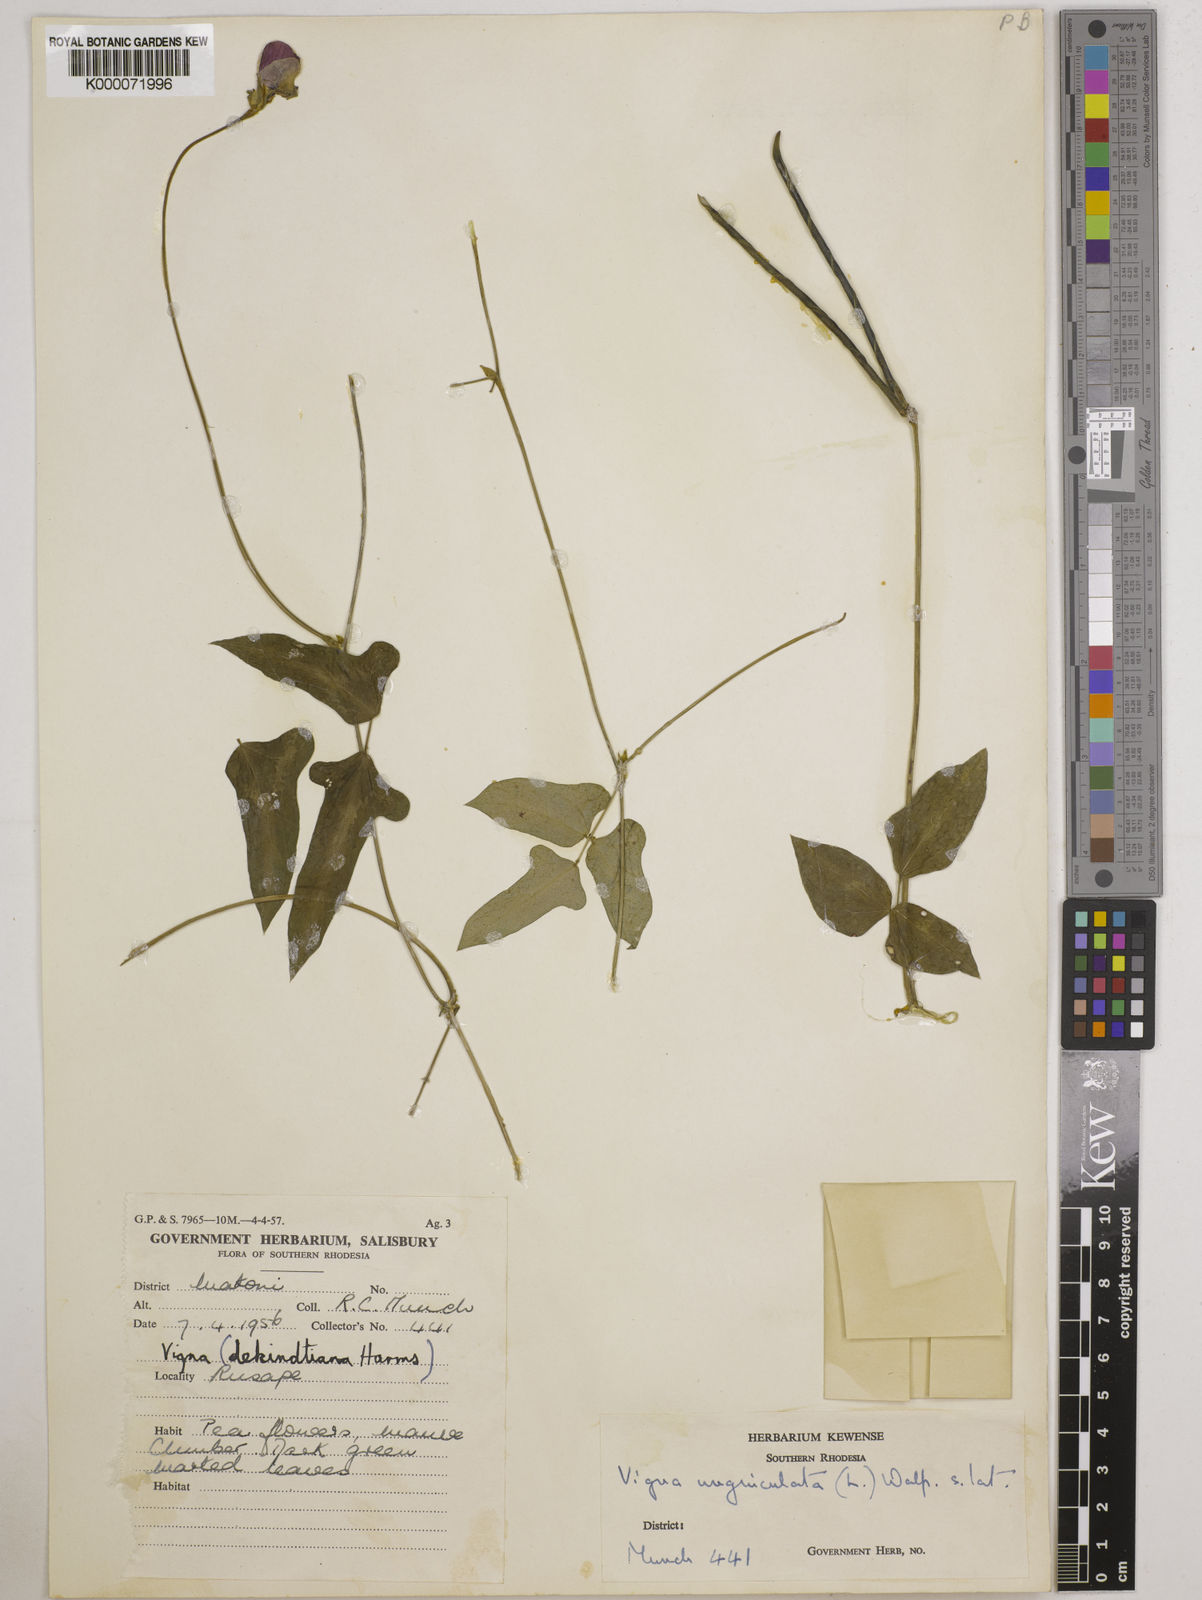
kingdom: Plantae
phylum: Tracheophyta
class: Magnoliopsida
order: Fabales
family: Fabaceae
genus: Vigna
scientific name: Vigna unguiculata
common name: Cowpea
